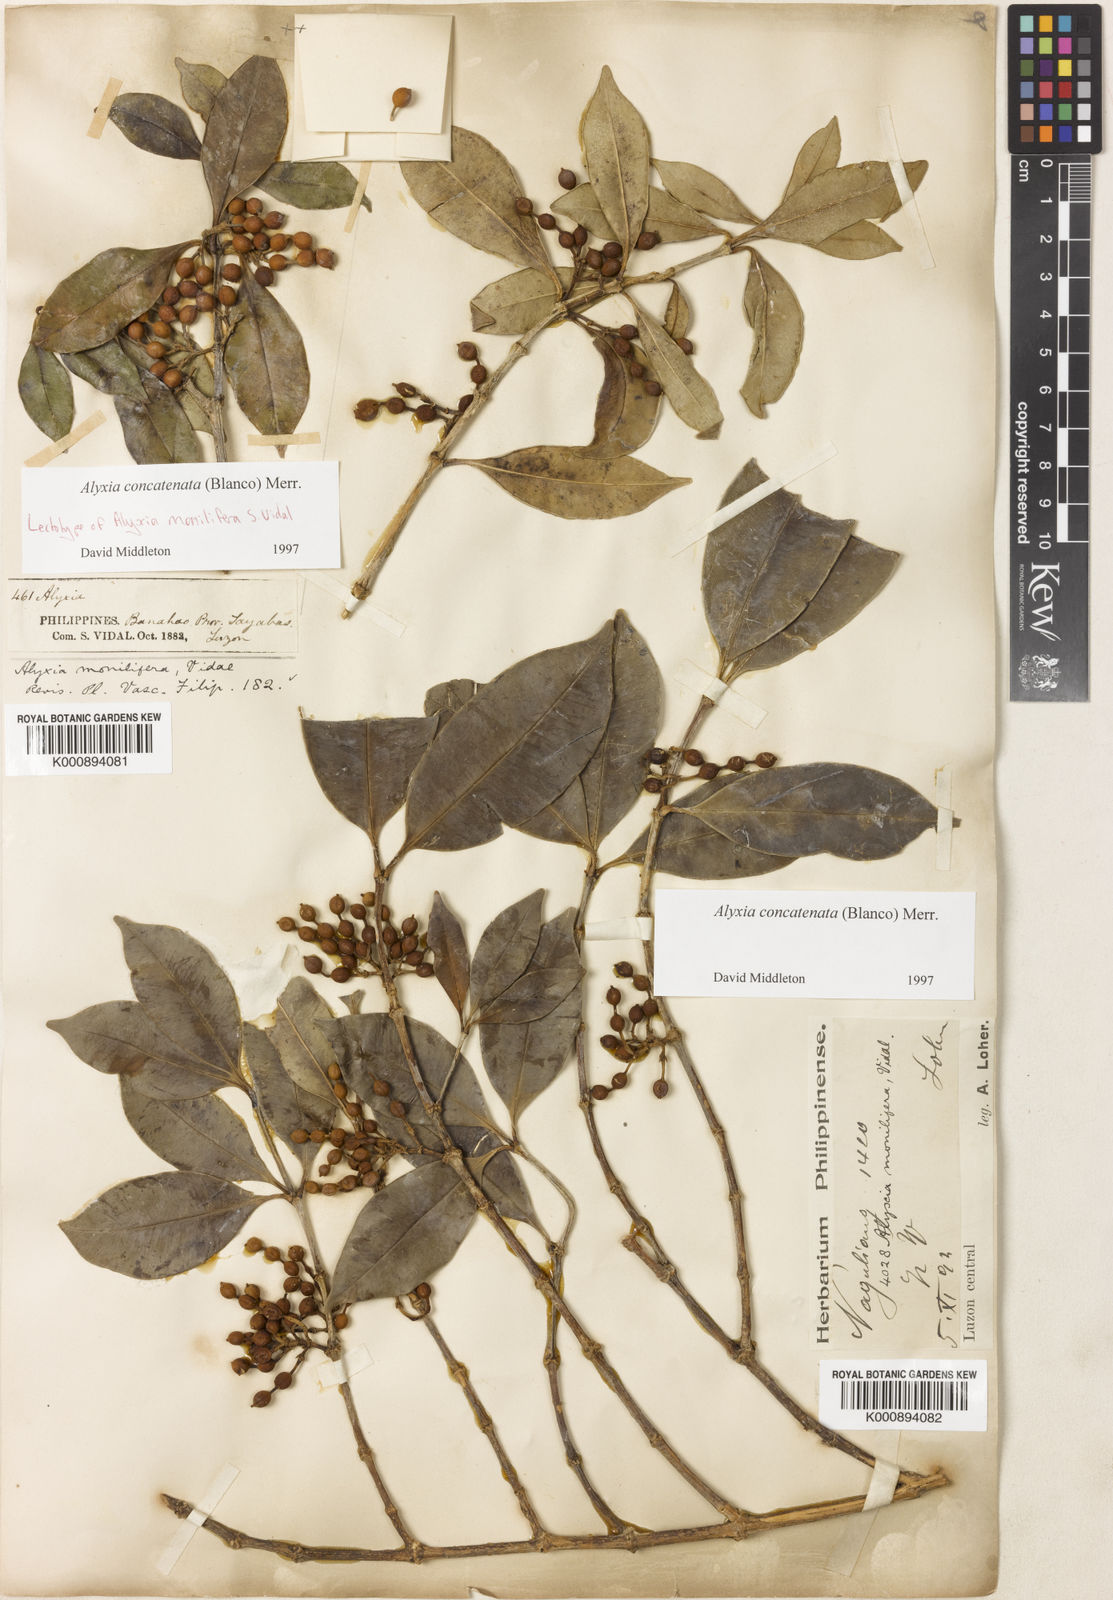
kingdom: Plantae
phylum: Tracheophyta
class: Magnoliopsida
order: Gentianales
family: Apocynaceae
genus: Alyxia
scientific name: Alyxia concatenata
